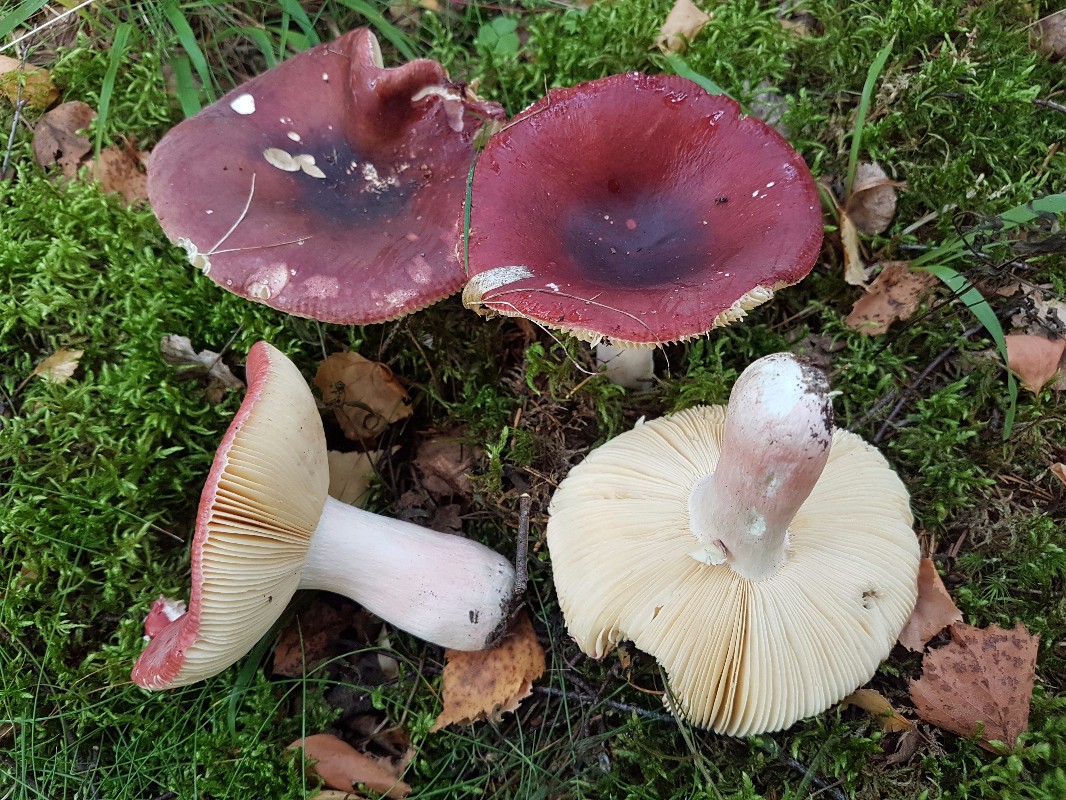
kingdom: Fungi
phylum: Basidiomycota
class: Agaricomycetes
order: Russulales
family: Russulaceae
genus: Russula
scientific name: Russula queletii
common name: Quélets skørhat
